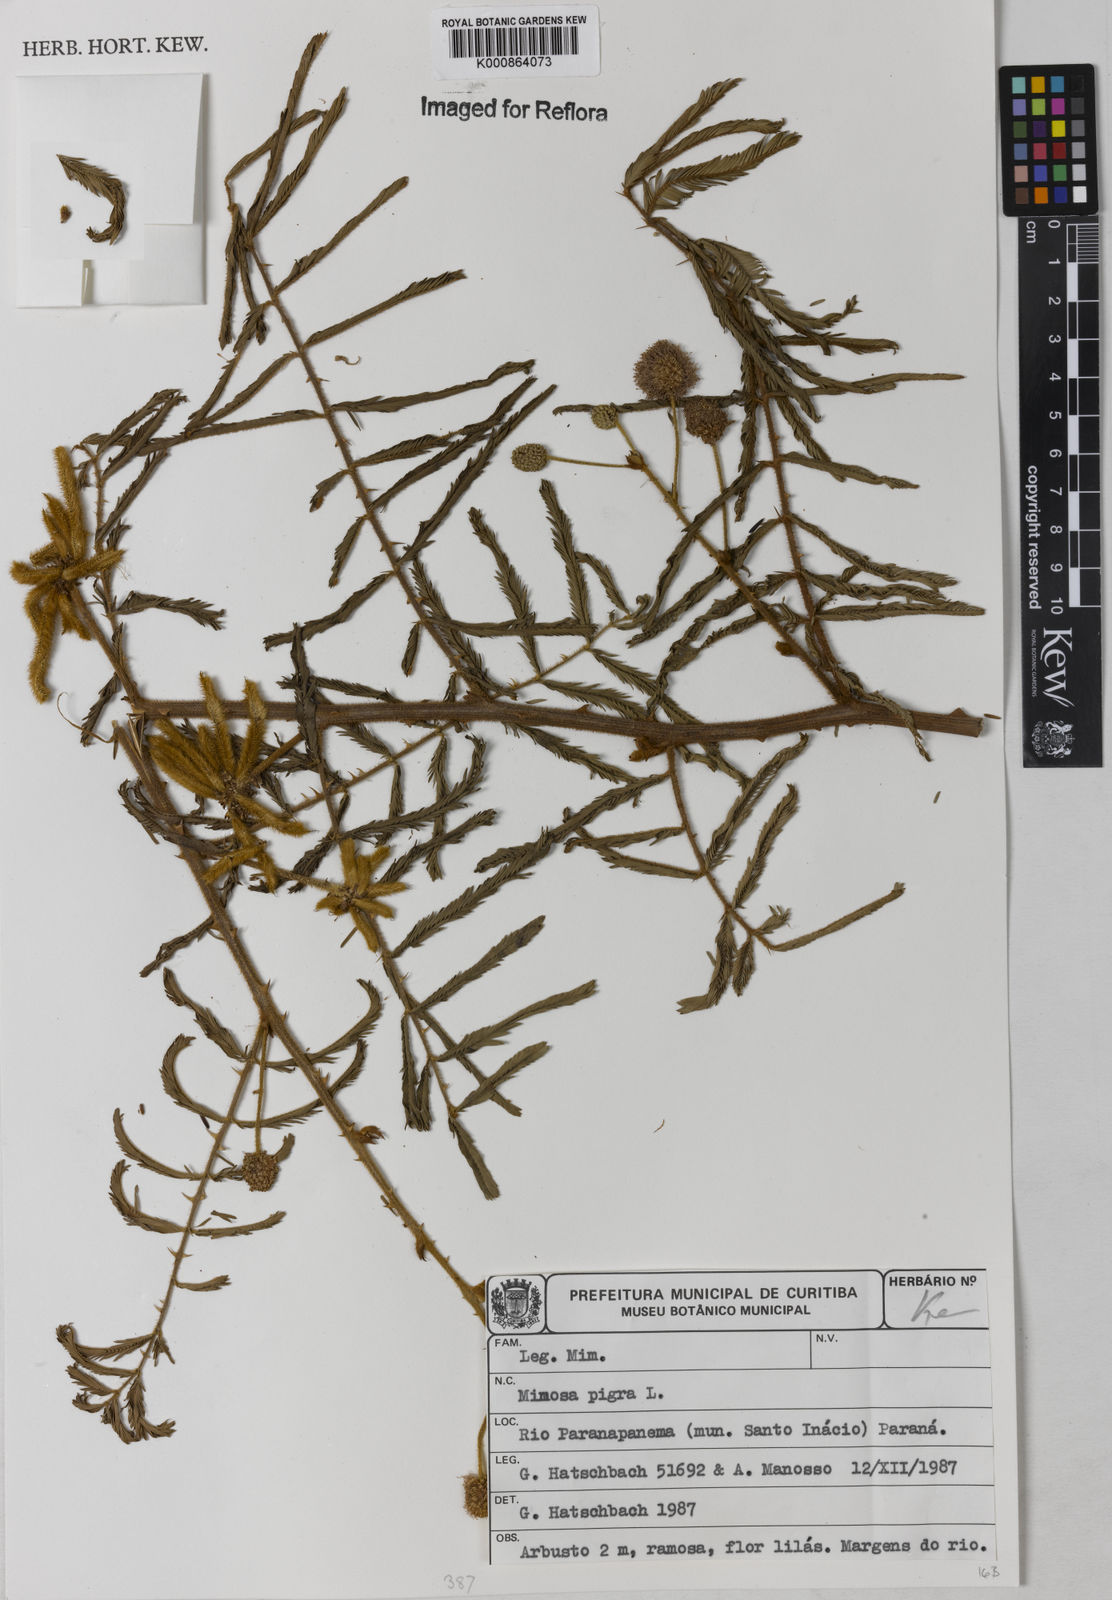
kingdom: Plantae
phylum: Tracheophyta
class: Magnoliopsida
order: Fabales
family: Fabaceae
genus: Mimosa
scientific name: Mimosa pigra
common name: Black mimosa
